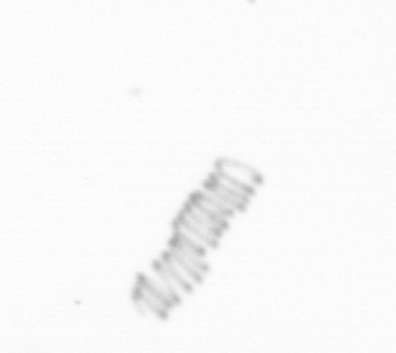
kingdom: Chromista
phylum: Ochrophyta
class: Bacillariophyceae
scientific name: Bacillariophyceae
